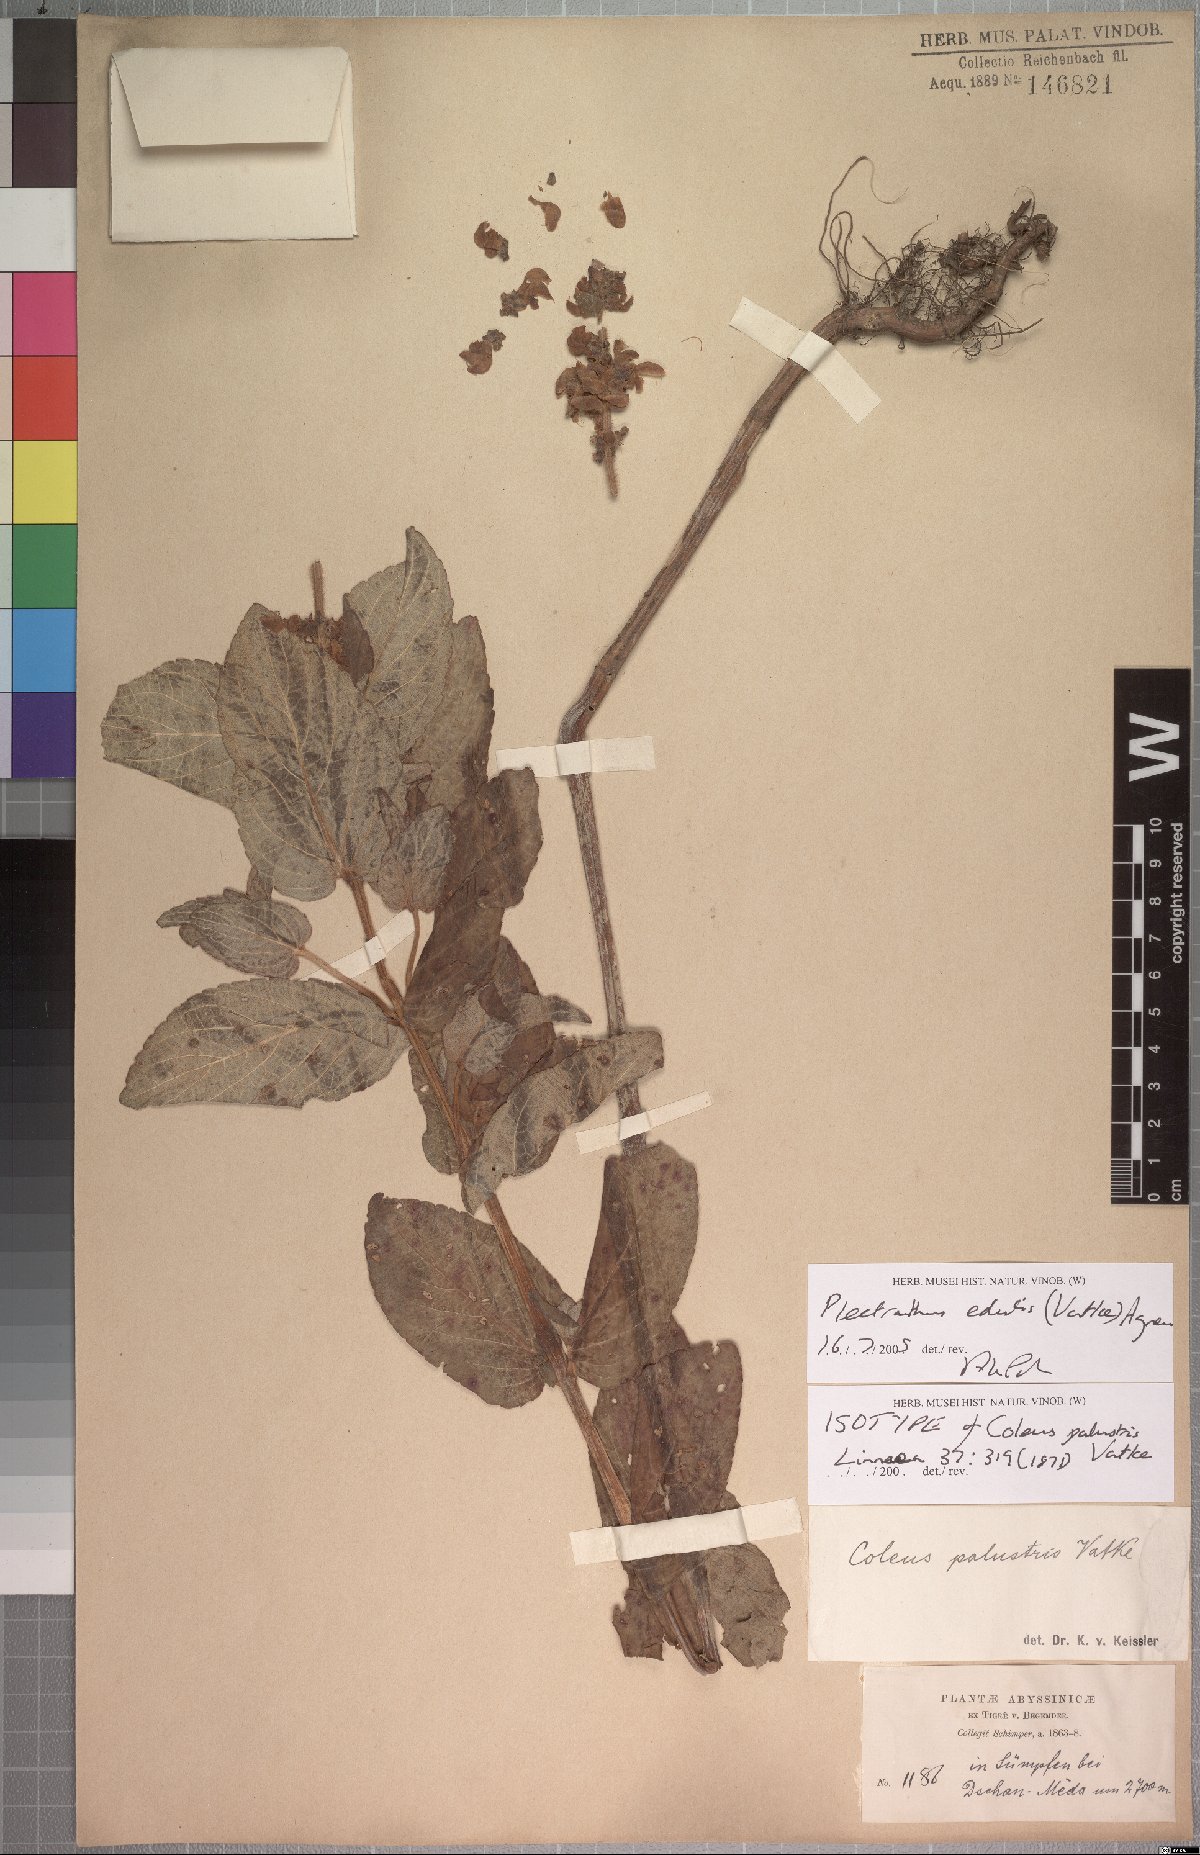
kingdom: Plantae
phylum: Tracheophyta
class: Magnoliopsida
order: Lamiales
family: Lamiaceae
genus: Coleus
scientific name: Coleus maculosus
